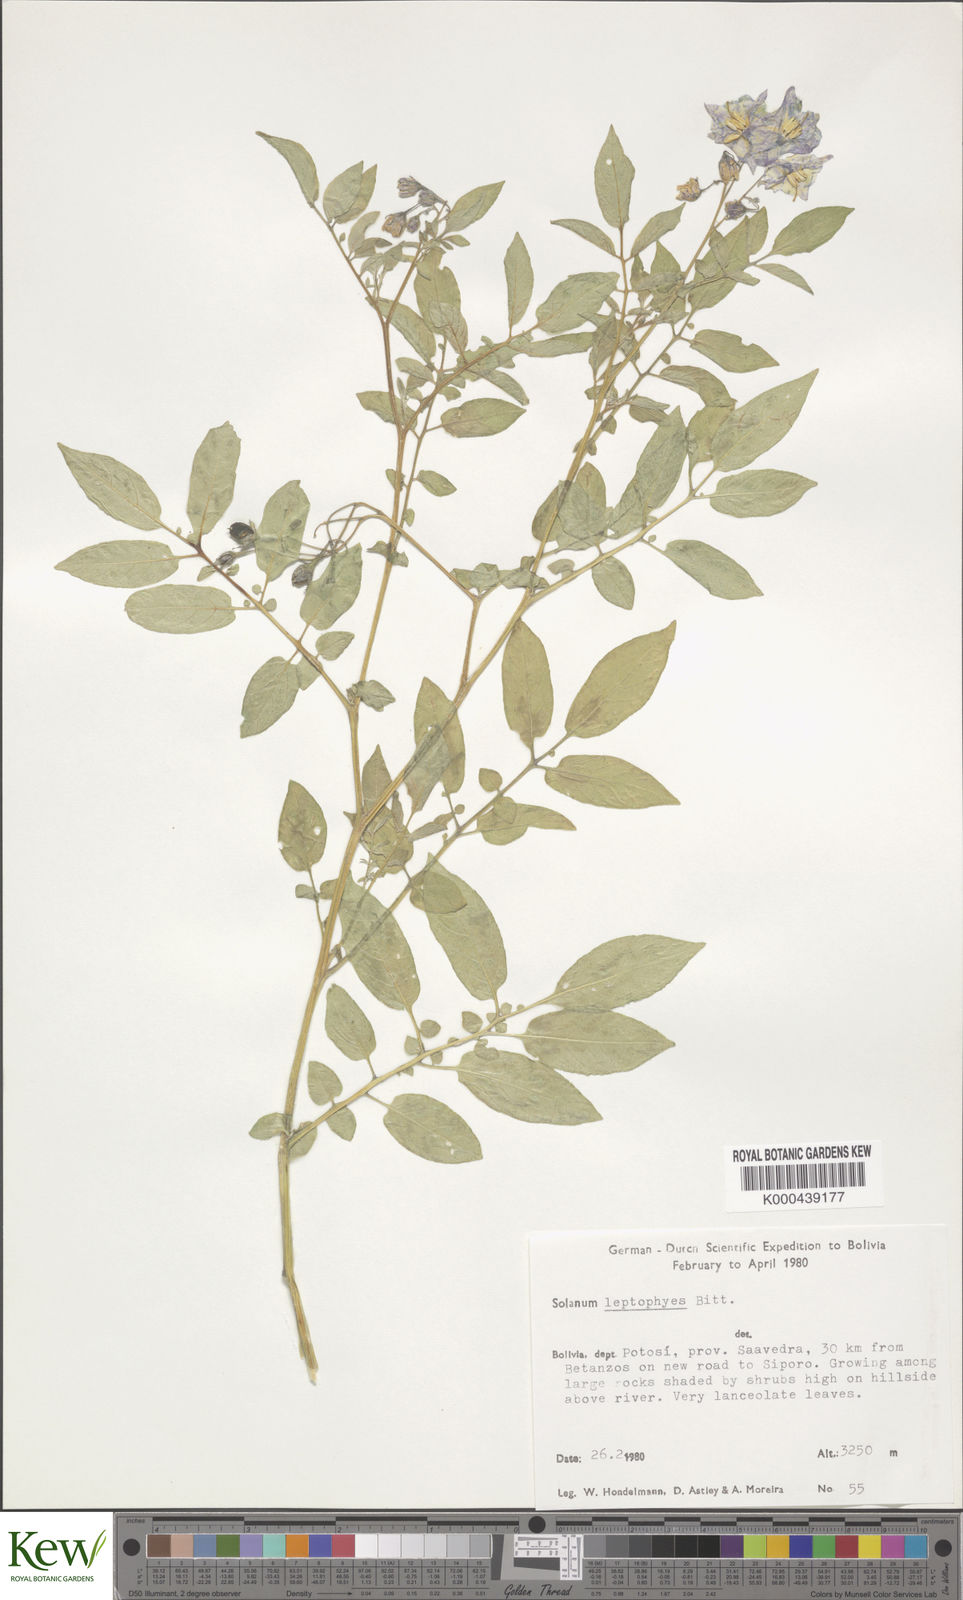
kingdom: Plantae
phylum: Tracheophyta
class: Magnoliopsida
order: Solanales
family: Solanaceae
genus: Solanum
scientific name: Solanum brevicaule
